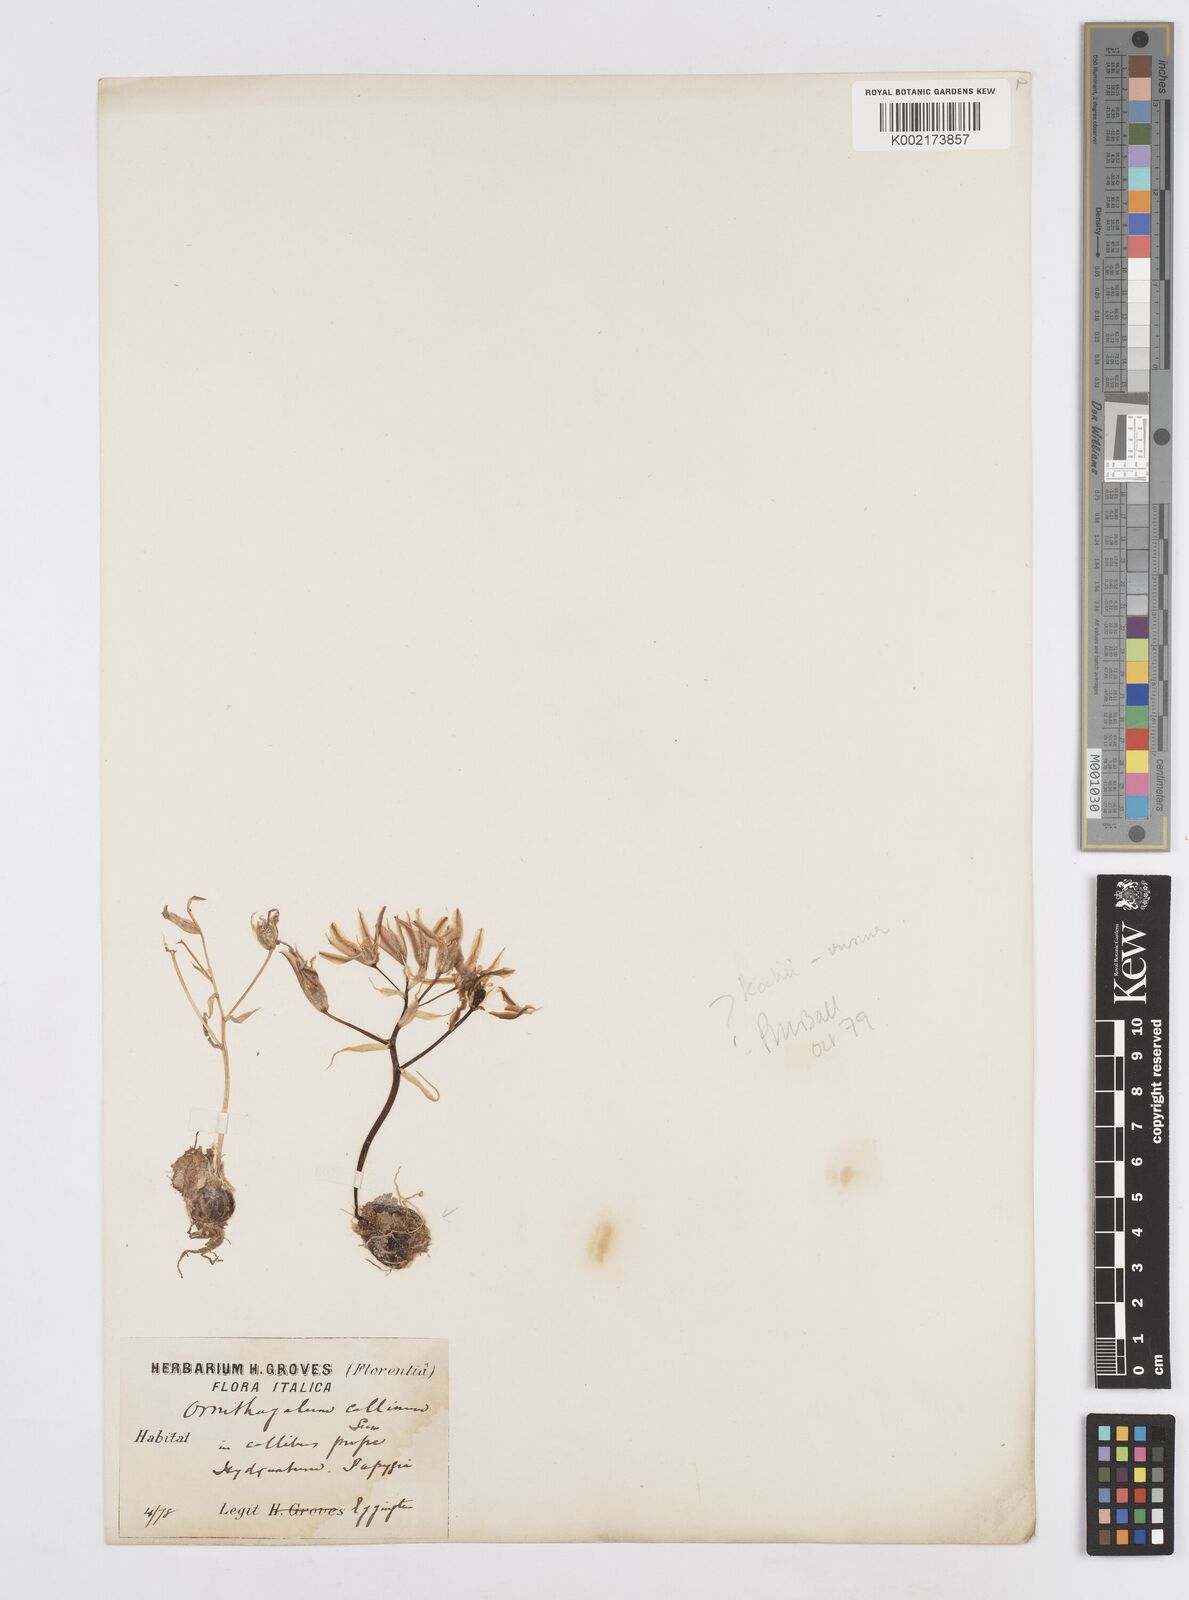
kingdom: Plantae
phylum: Tracheophyta
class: Liliopsida
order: Asparagales
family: Asparagaceae
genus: Ornithogalum
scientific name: Ornithogalum orthophyllum
